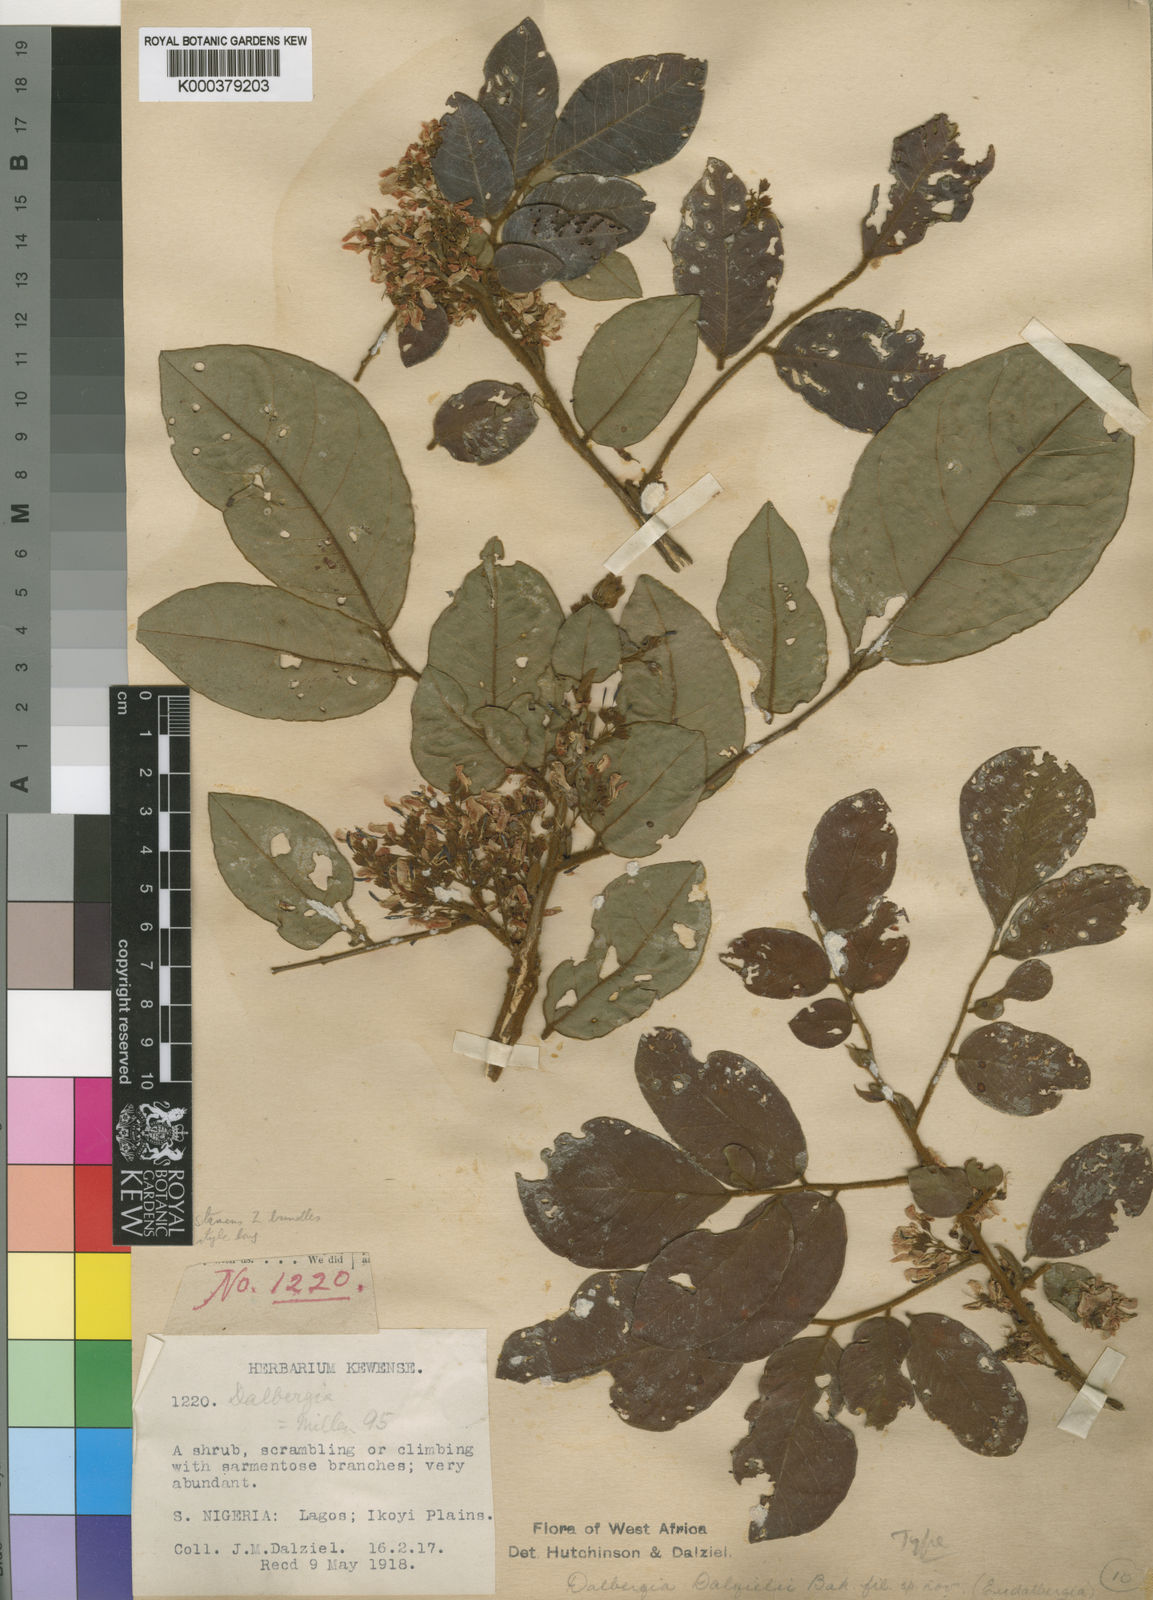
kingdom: Plantae
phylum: Tracheophyta
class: Magnoliopsida
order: Fabales
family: Fabaceae
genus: Dalbergia
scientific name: Dalbergia dalzielii ex
